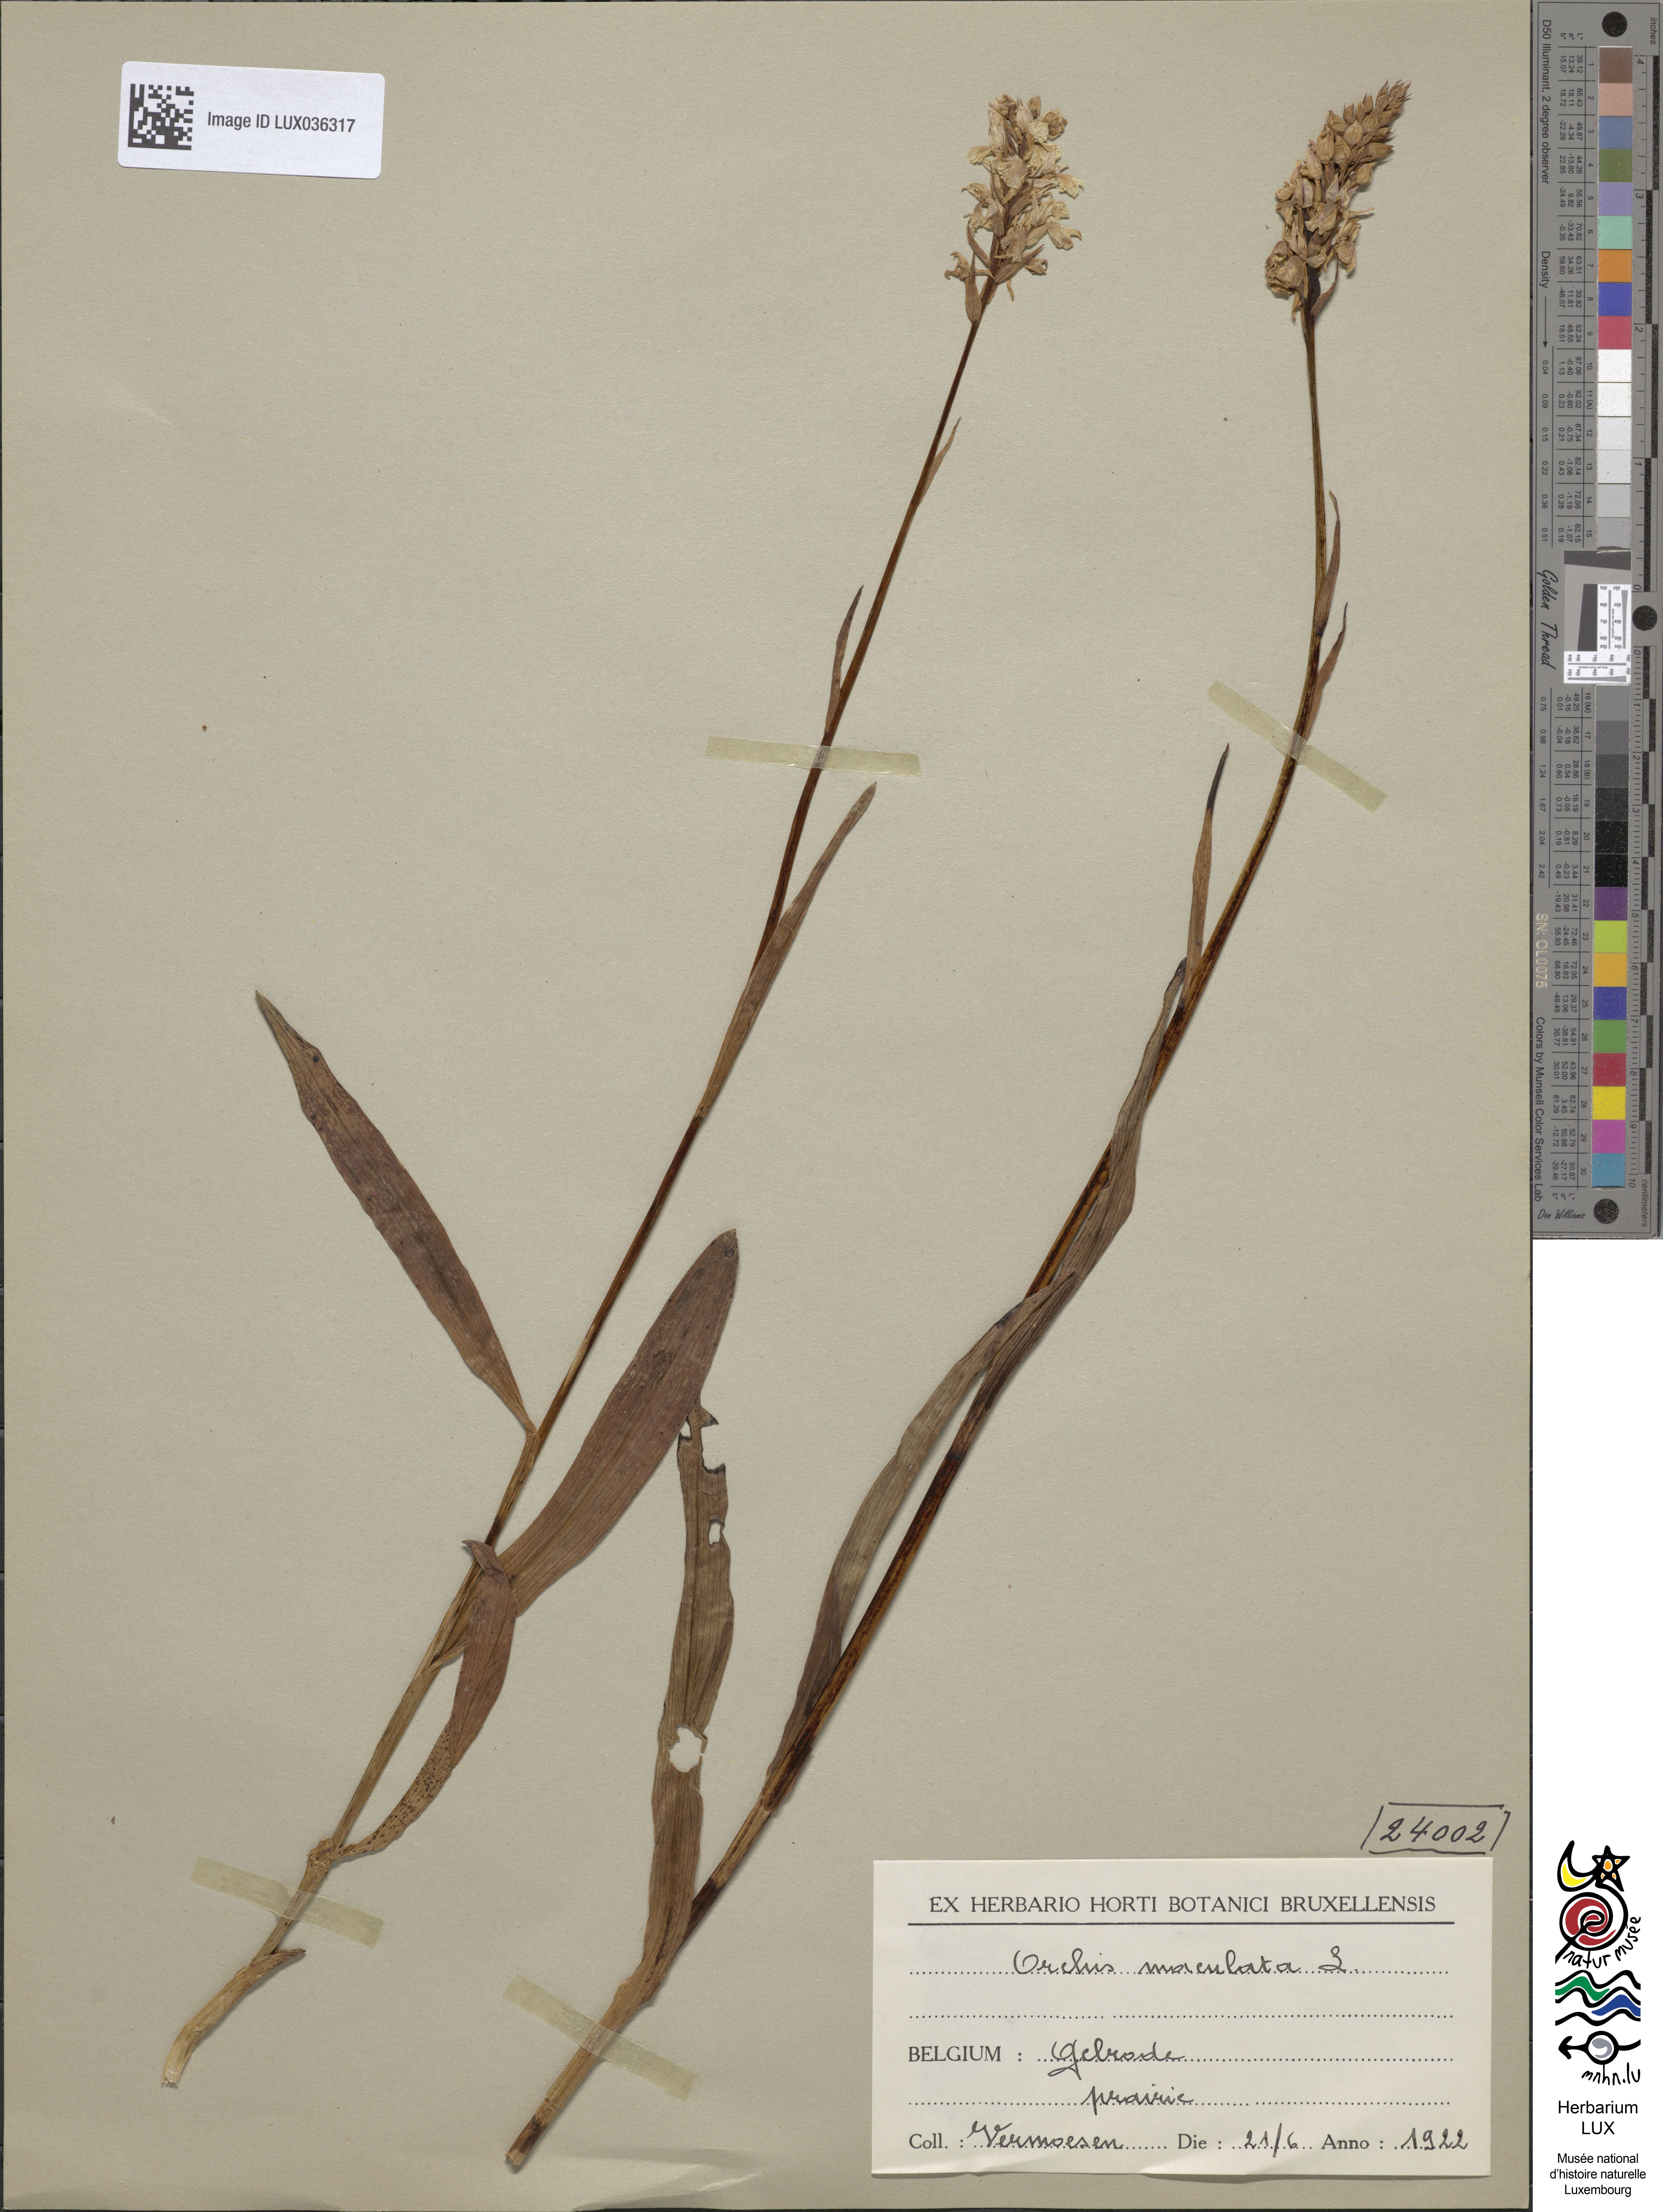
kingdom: Plantae
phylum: Tracheophyta
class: Liliopsida
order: Asparagales
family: Orchidaceae
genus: Dactylorhiza
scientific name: Dactylorhiza maculata
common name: Heath spotted-orchid
